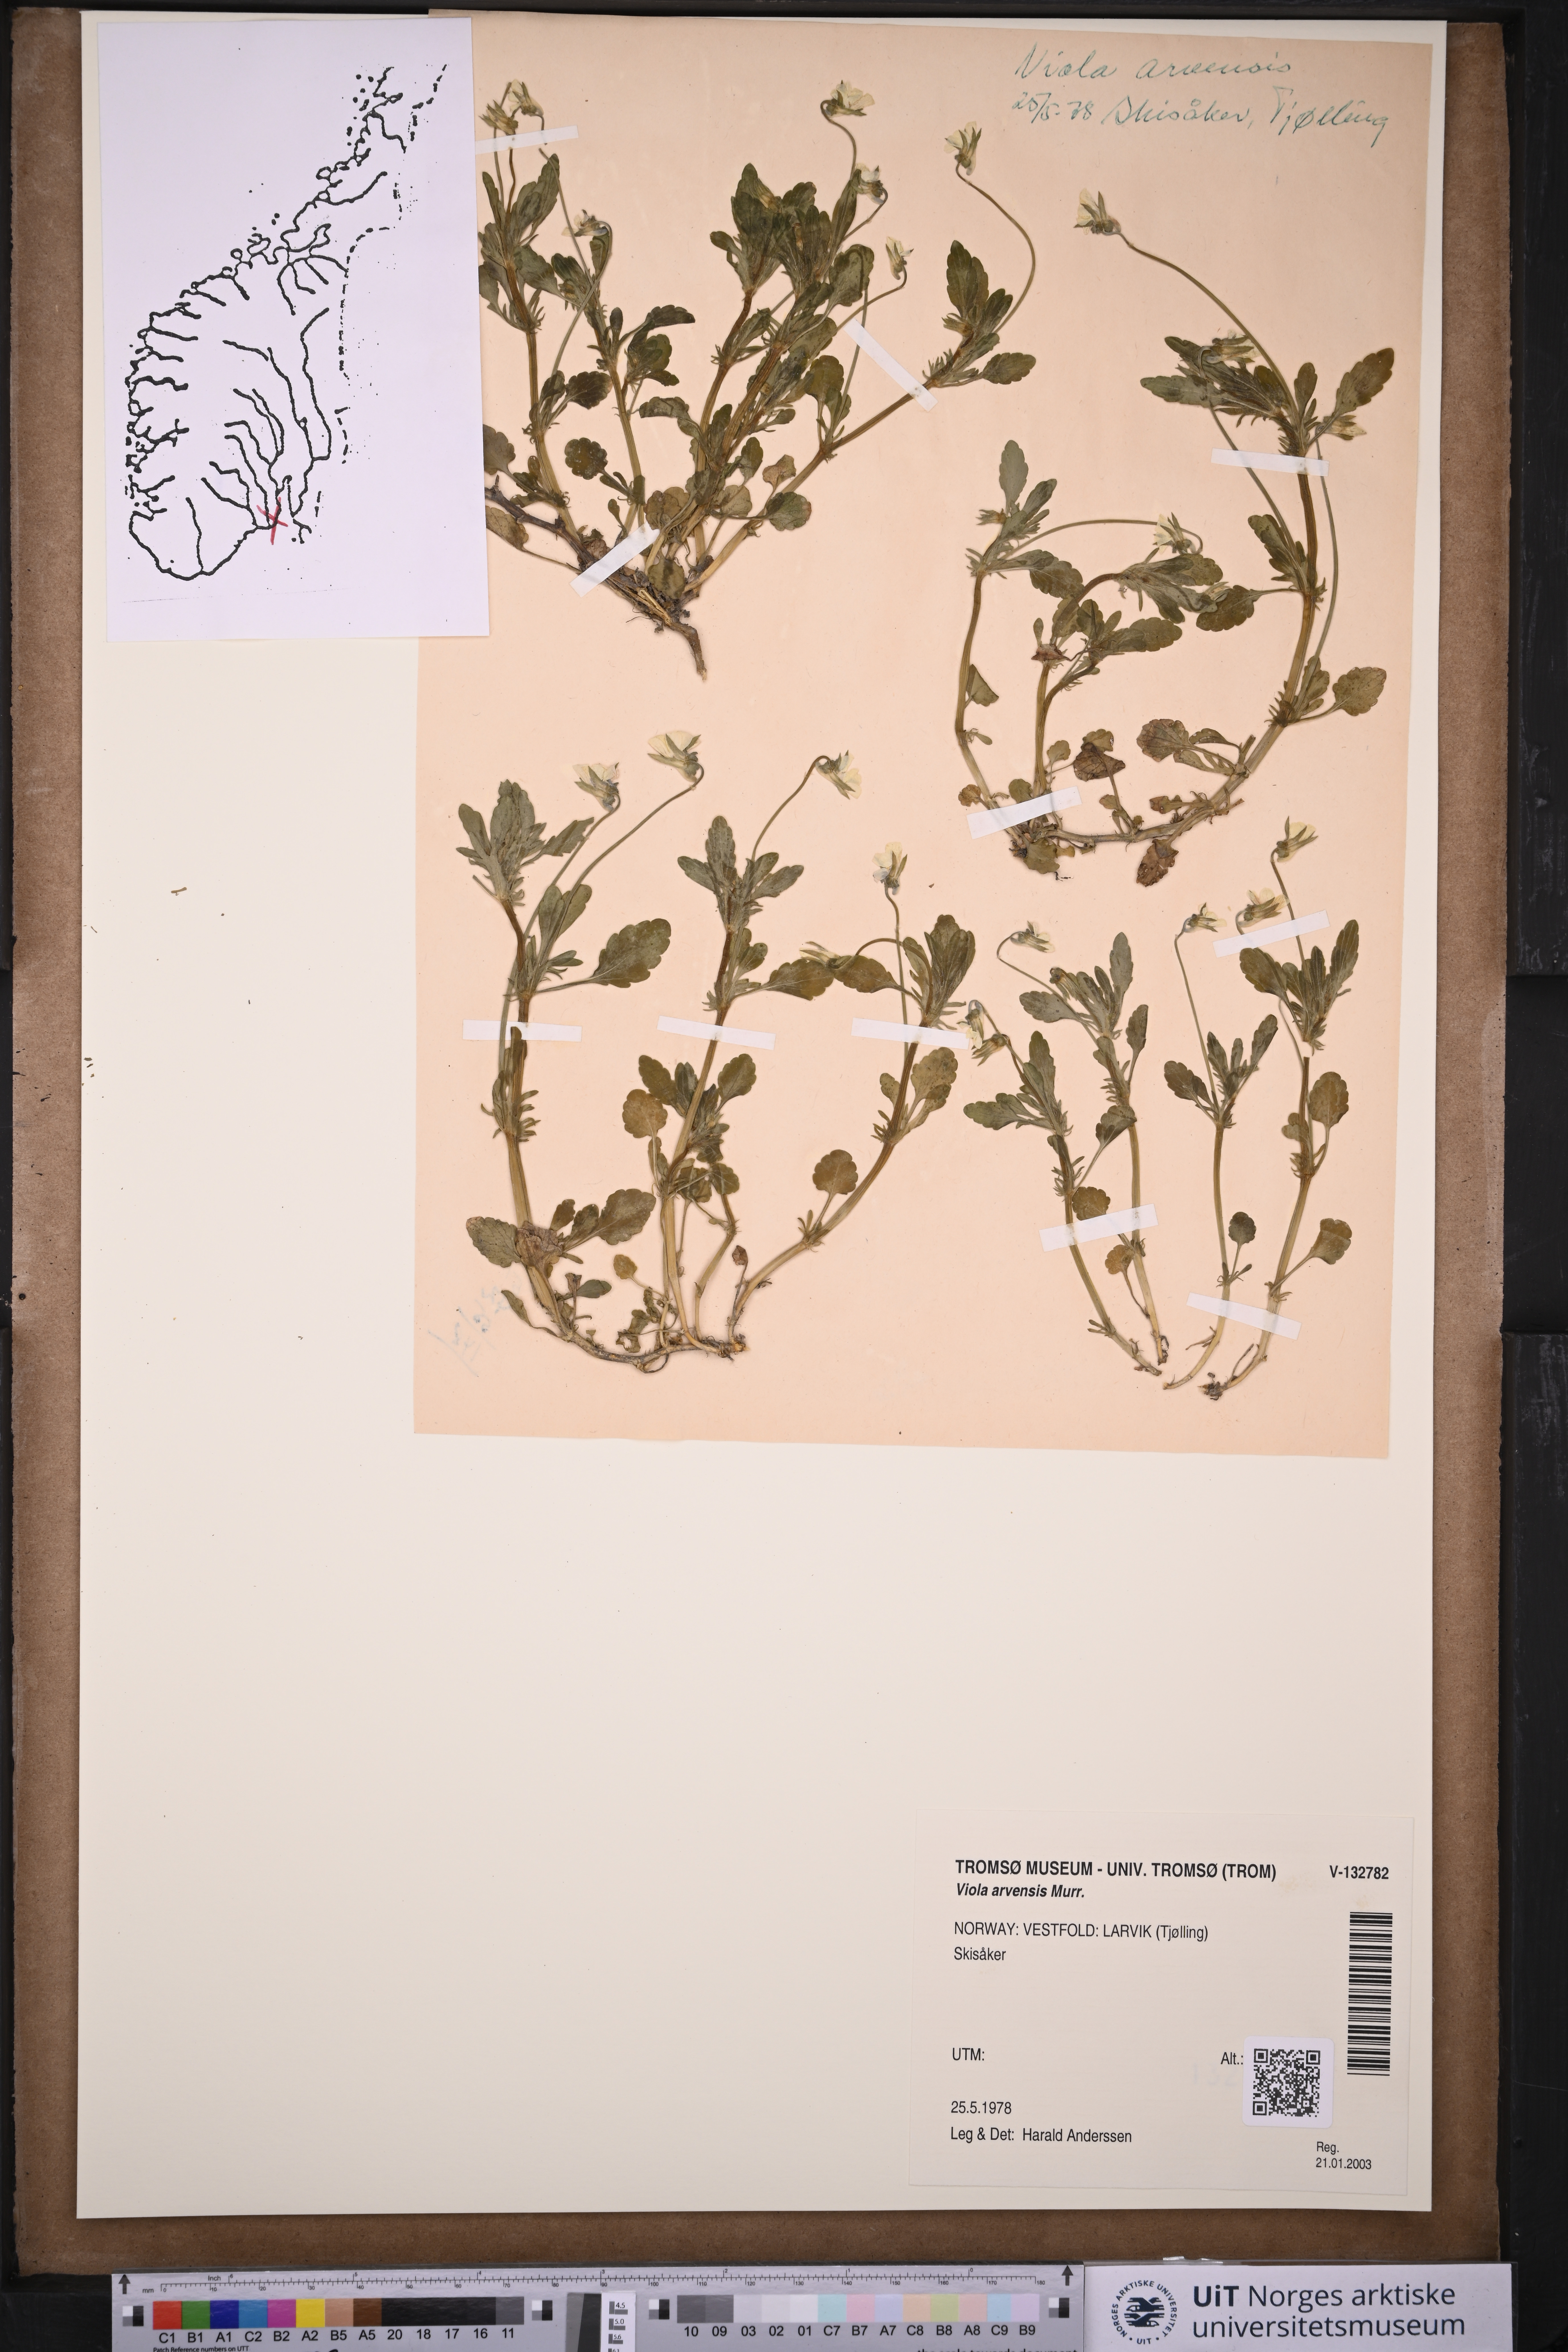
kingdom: Plantae
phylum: Tracheophyta
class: Magnoliopsida
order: Malpighiales
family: Violaceae
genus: Viola
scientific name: Viola arvensis
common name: Field pansy
